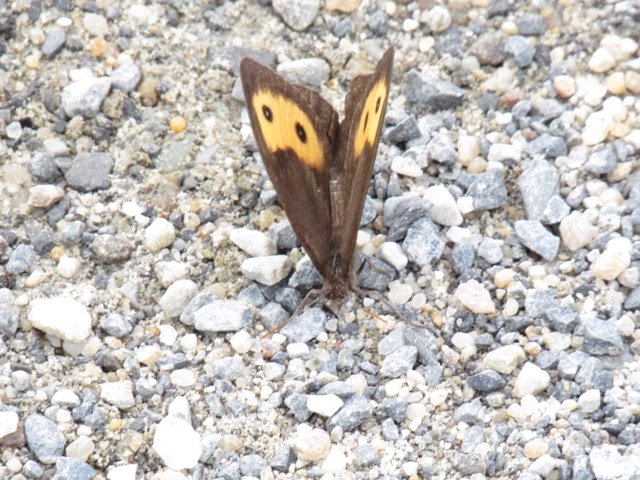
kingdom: Animalia
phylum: Arthropoda
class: Insecta
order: Lepidoptera
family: Nymphalidae
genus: Cercyonis
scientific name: Cercyonis pegala
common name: Common Wood-Nymph
